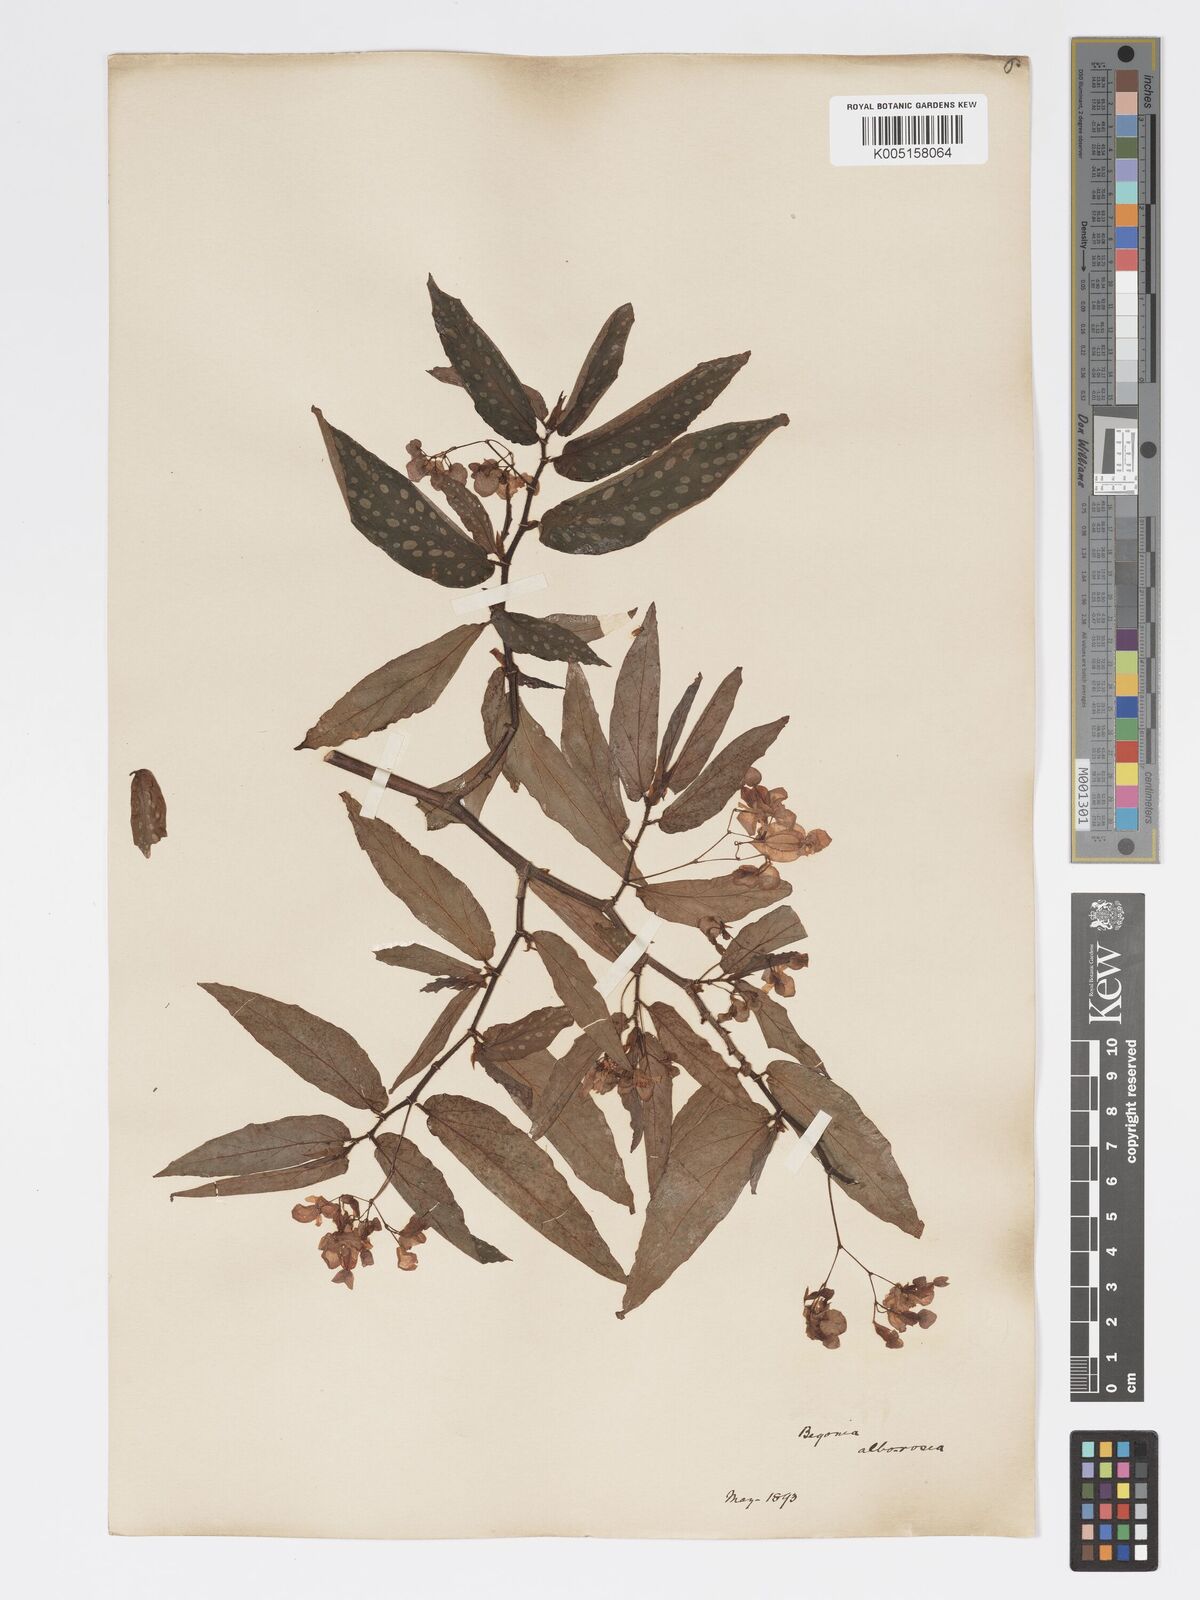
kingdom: Plantae
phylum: Tracheophyta
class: Magnoliopsida
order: Cucurbitales
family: Begoniaceae
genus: Begonia
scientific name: Begonia
